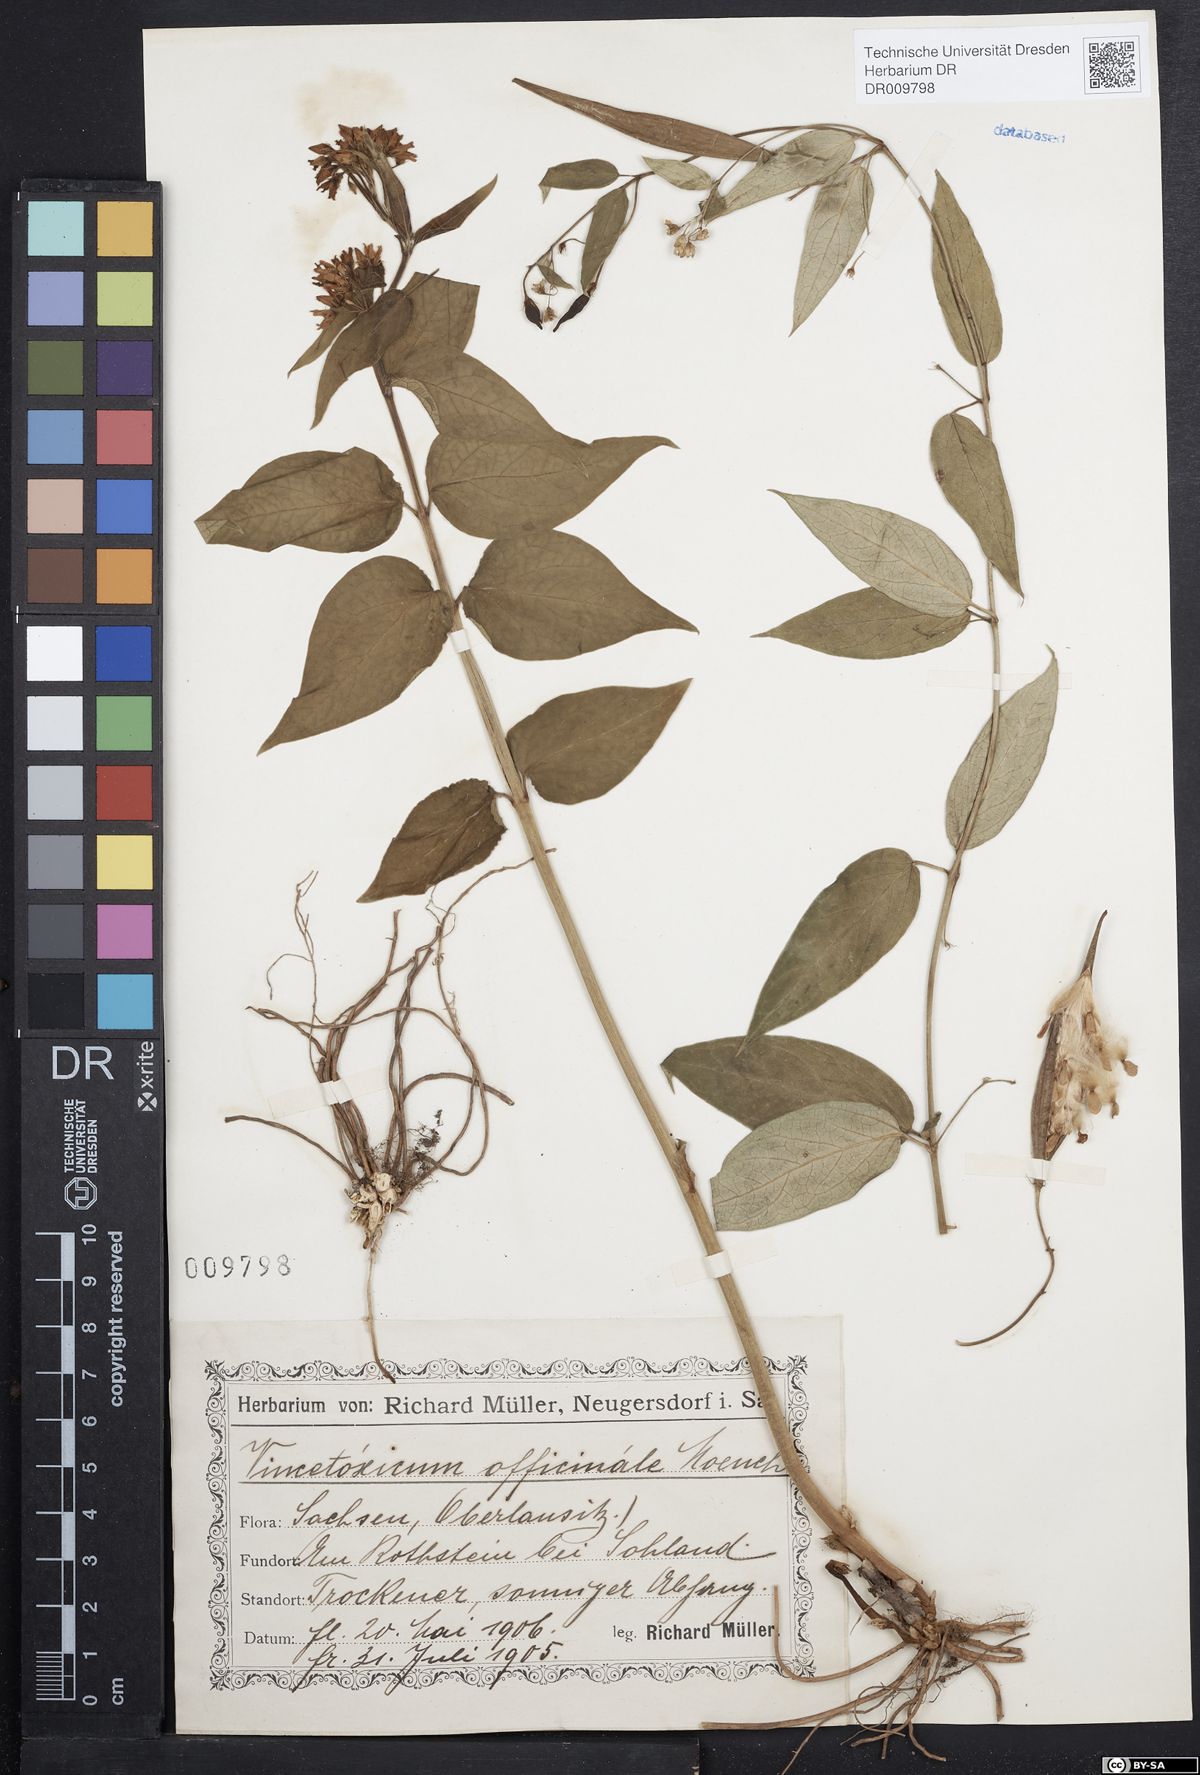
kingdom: Plantae
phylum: Tracheophyta
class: Magnoliopsida
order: Gentianales
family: Apocynaceae
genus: Vincetoxicum
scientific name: Vincetoxicum hirundinaria
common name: White swallowwort
